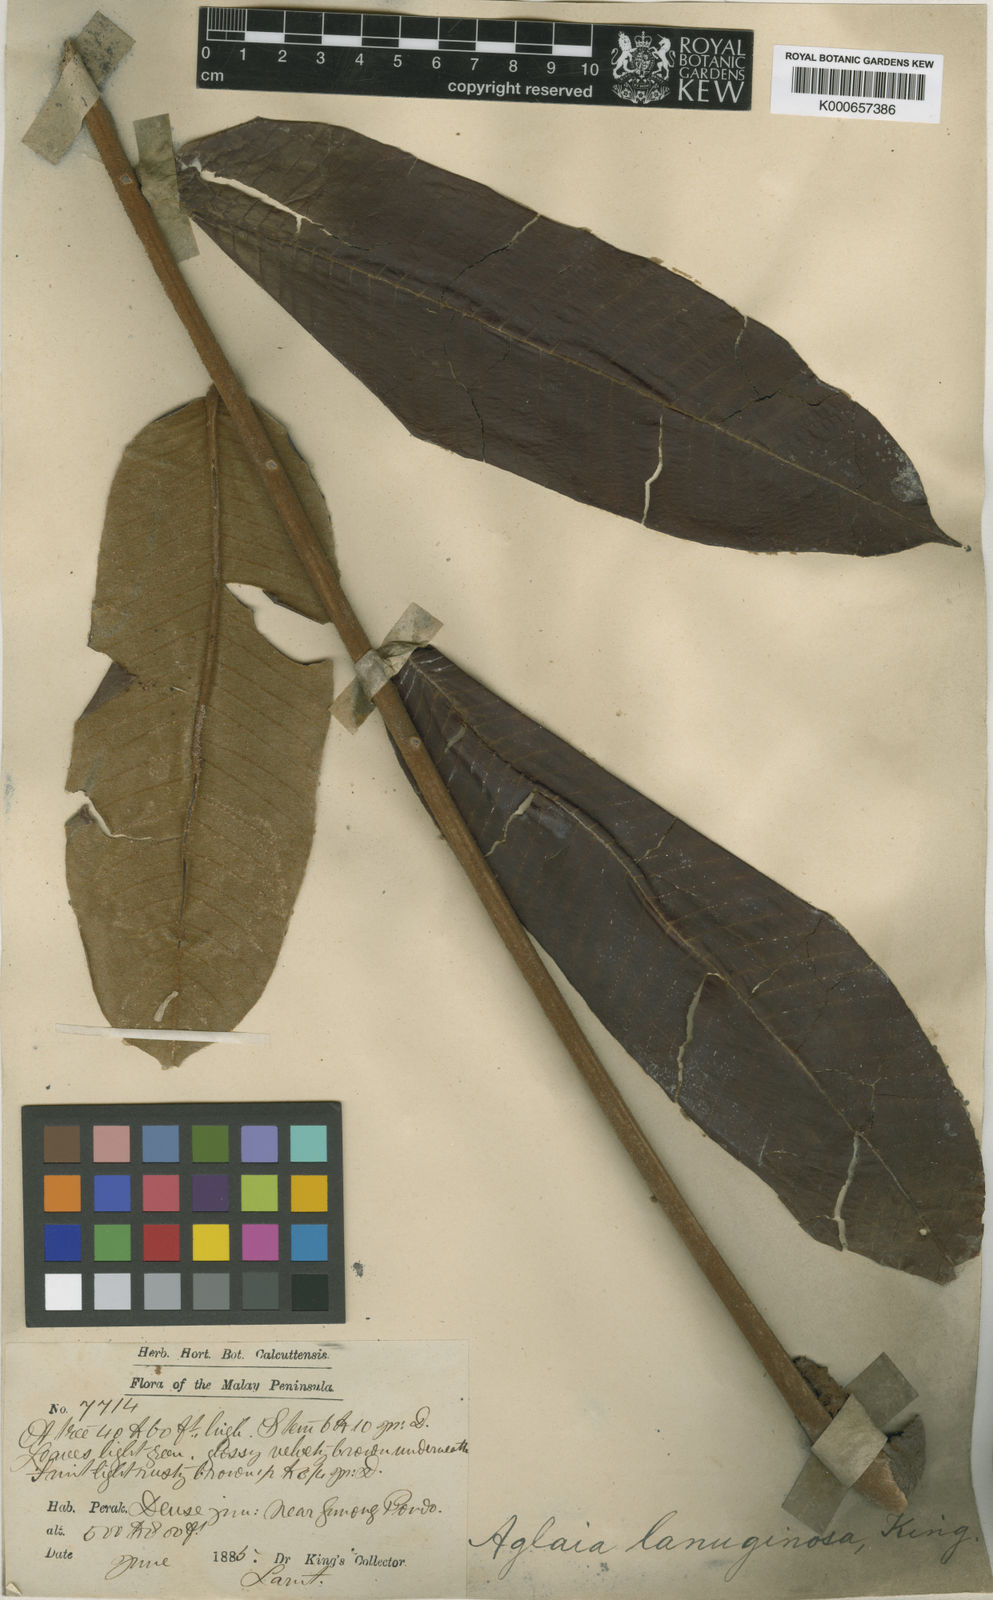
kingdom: Plantae
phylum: Tracheophyta
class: Magnoliopsida
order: Sapindales
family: Meliaceae
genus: Aglaia
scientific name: Aglaia
